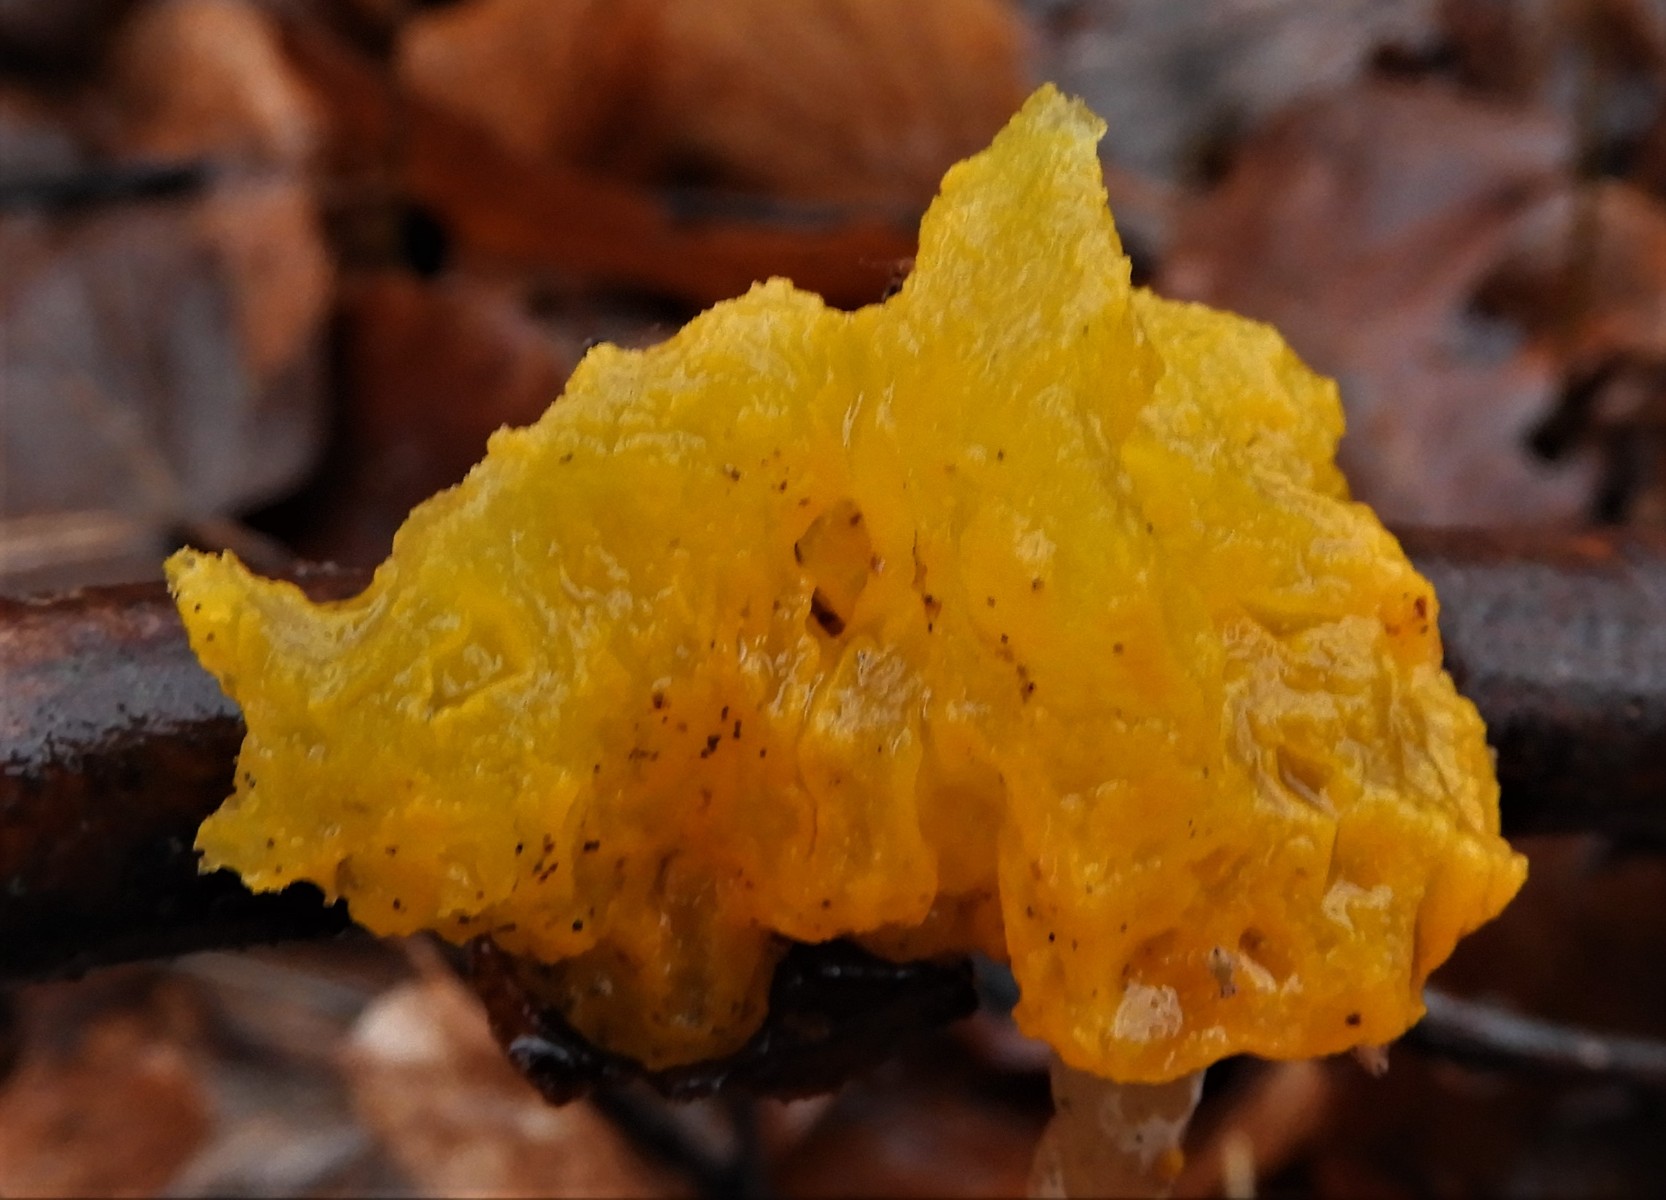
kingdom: Fungi
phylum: Basidiomycota
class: Tremellomycetes
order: Tremellales
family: Tremellaceae
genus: Tremella
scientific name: Tremella mesenterica
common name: gul bævresvamp
